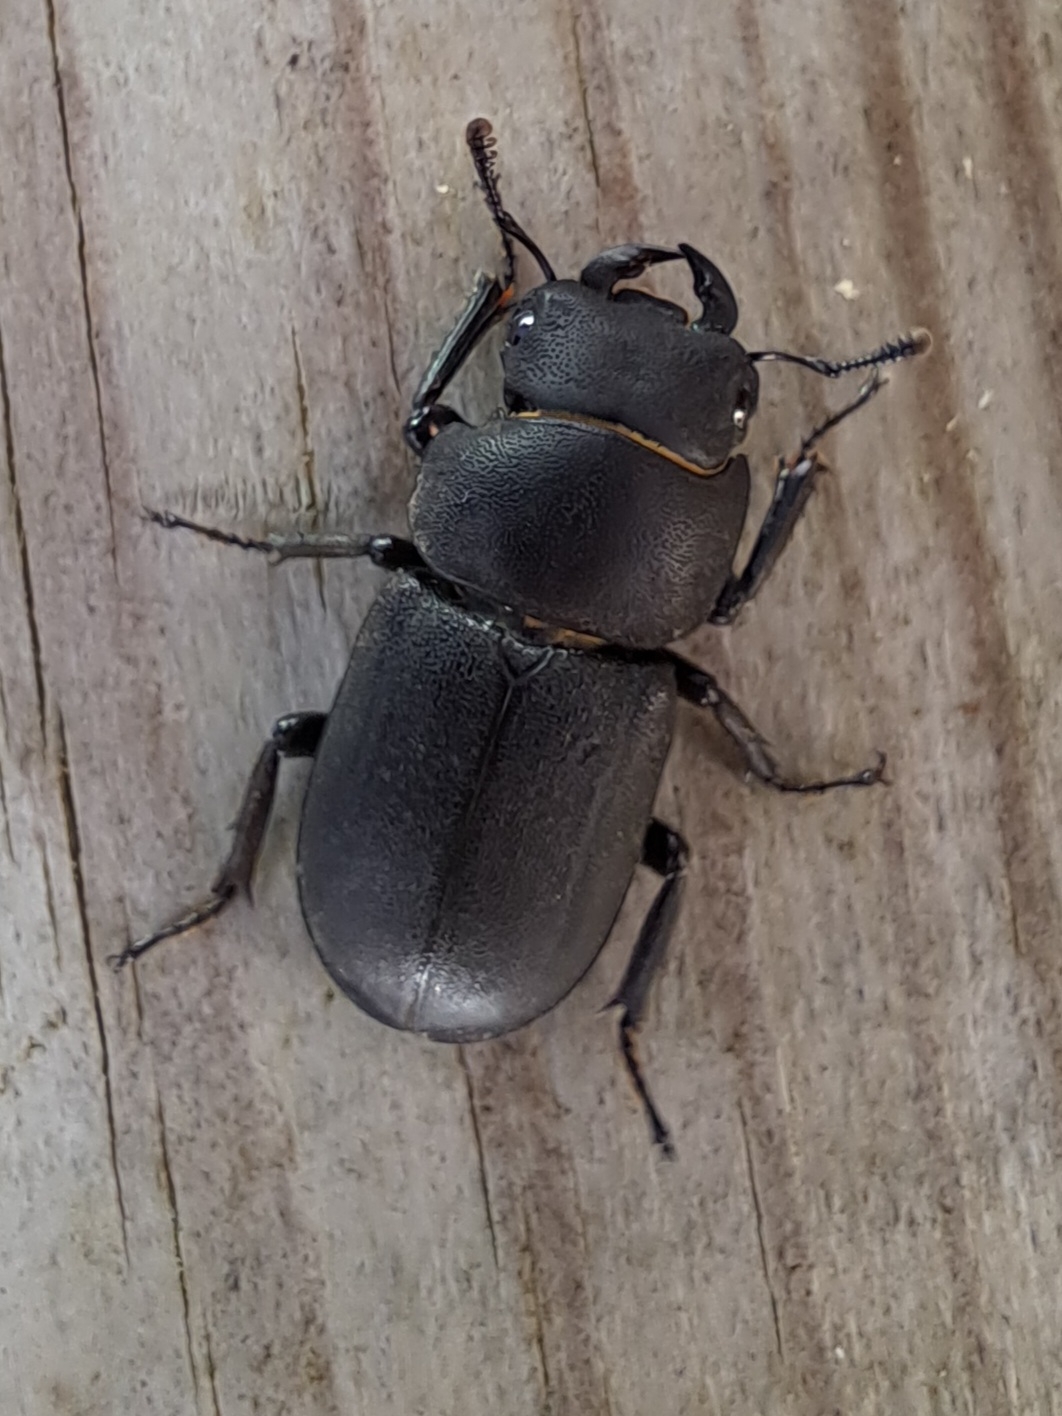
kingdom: Animalia
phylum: Arthropoda
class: Insecta
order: Coleoptera
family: Lucanidae
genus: Dorcus
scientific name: Dorcus parallelipipedus
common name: Bøghjort
